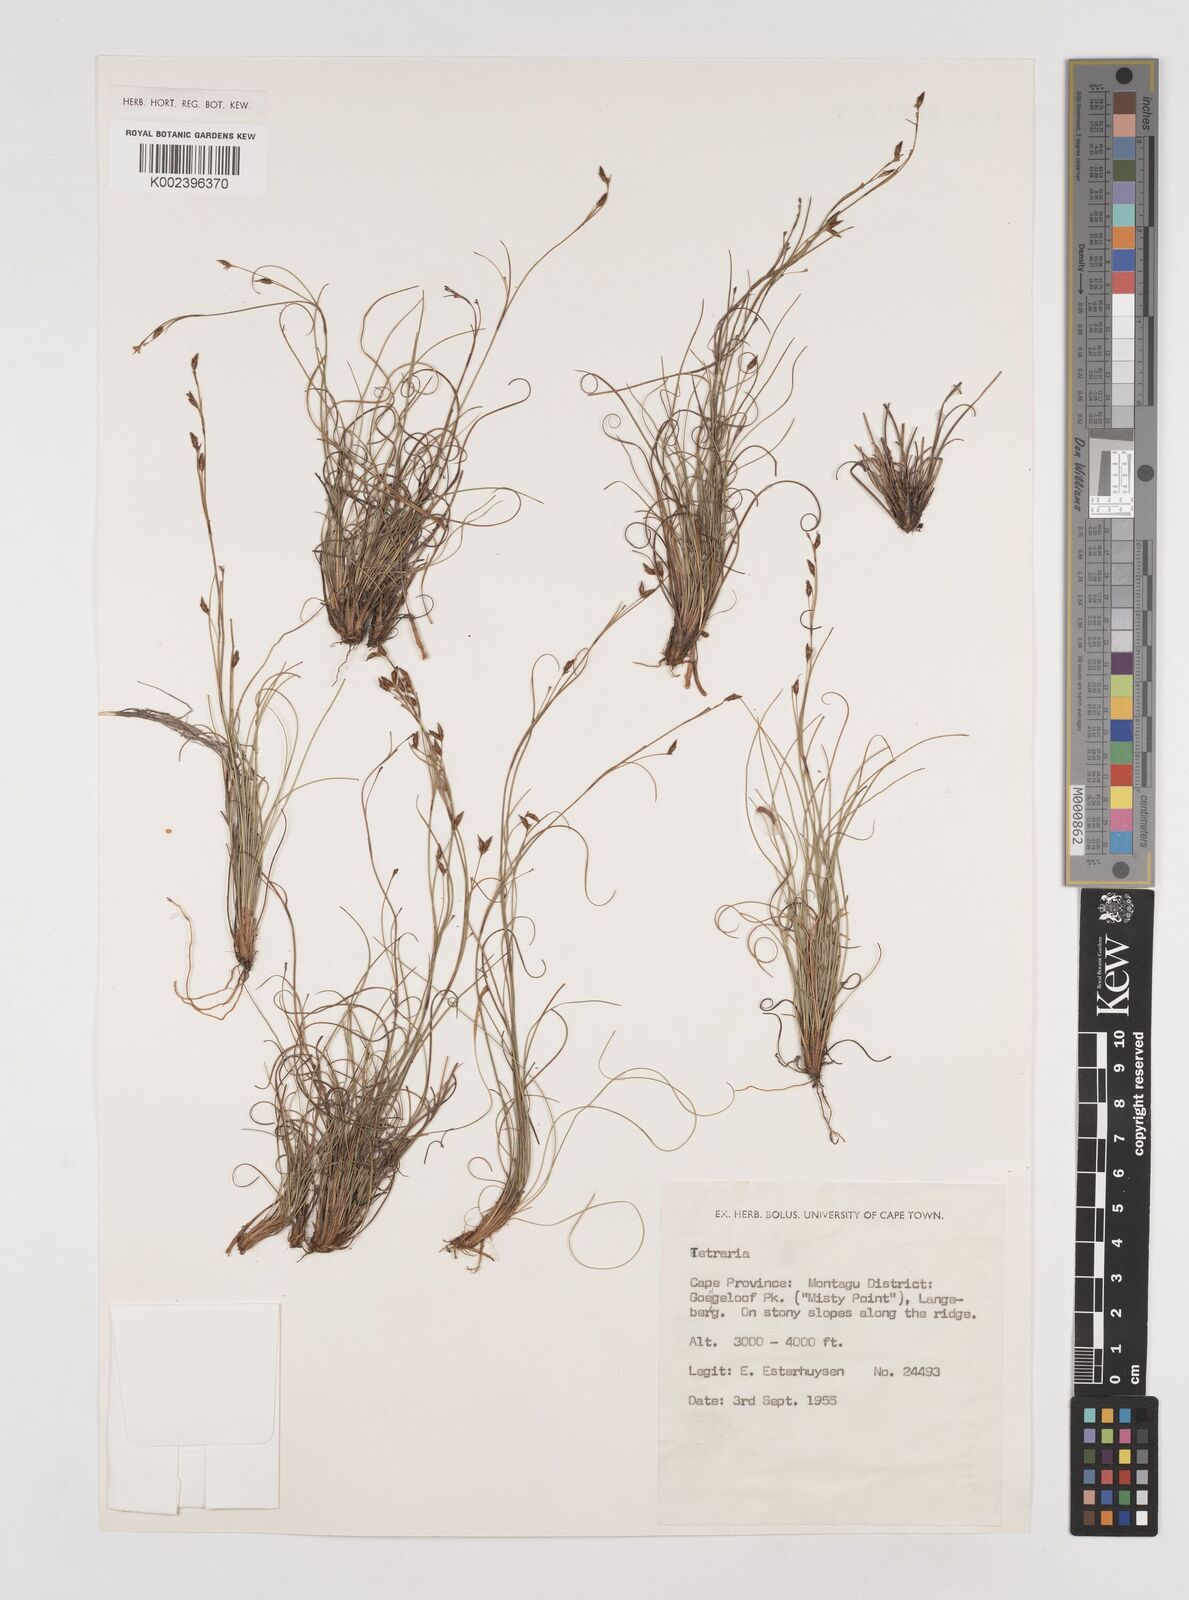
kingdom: Plantae
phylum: Tracheophyta
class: Liliopsida
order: Poales
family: Cyperaceae
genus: Tetraria
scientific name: Tetraria
